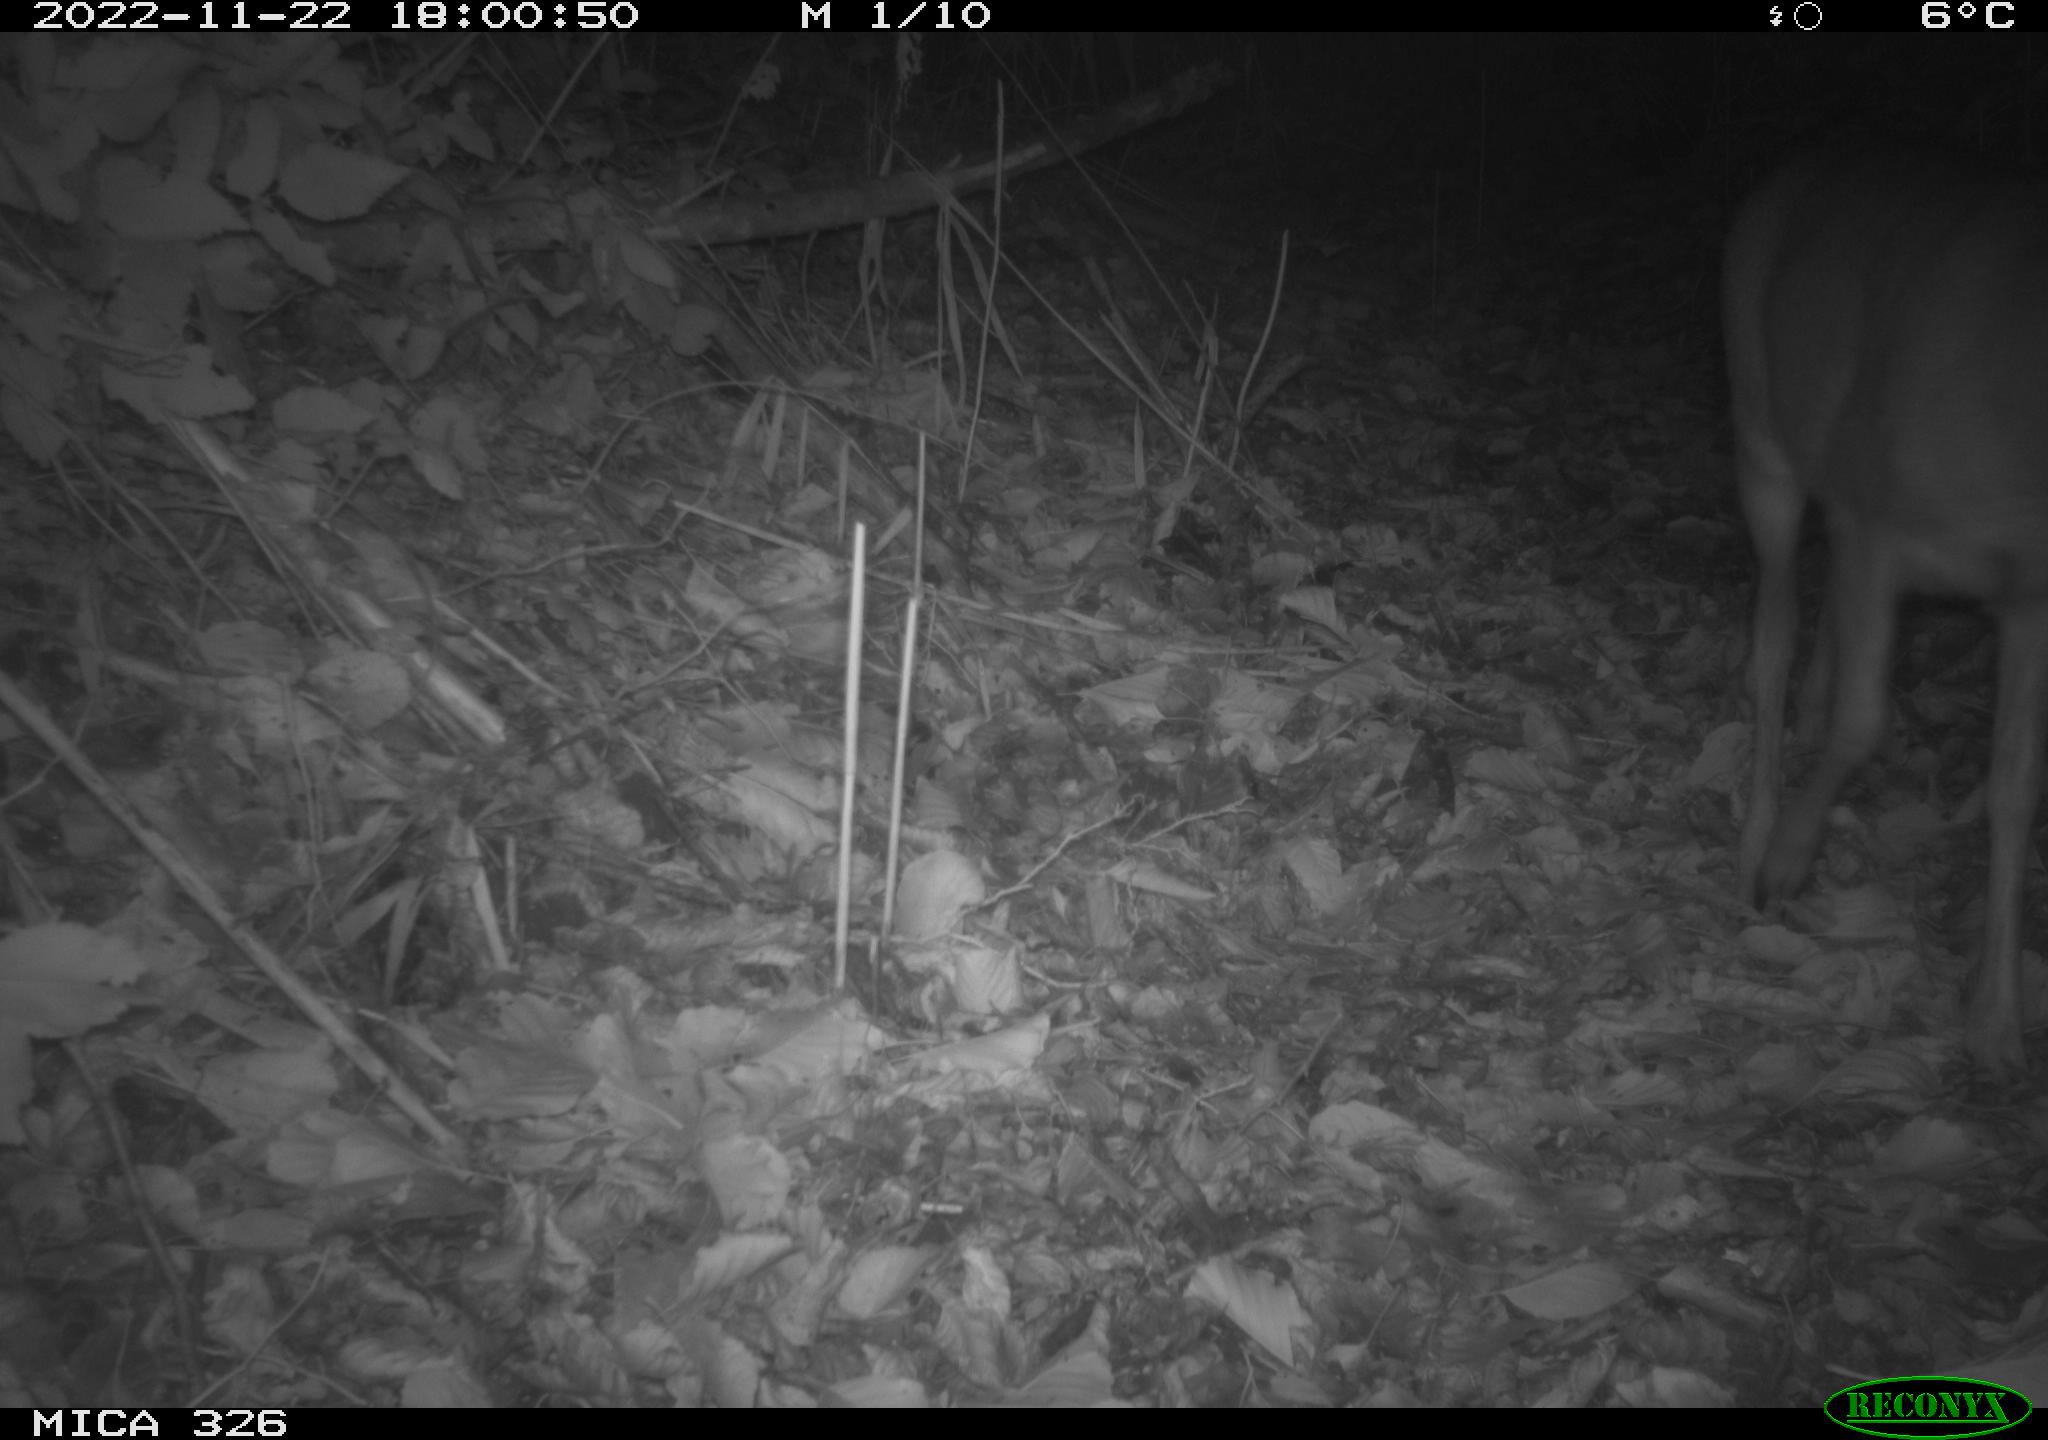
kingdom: Animalia
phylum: Chordata
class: Mammalia
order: Artiodactyla
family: Cervidae
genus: Capreolus
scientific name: Capreolus capreolus
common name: Western roe deer
